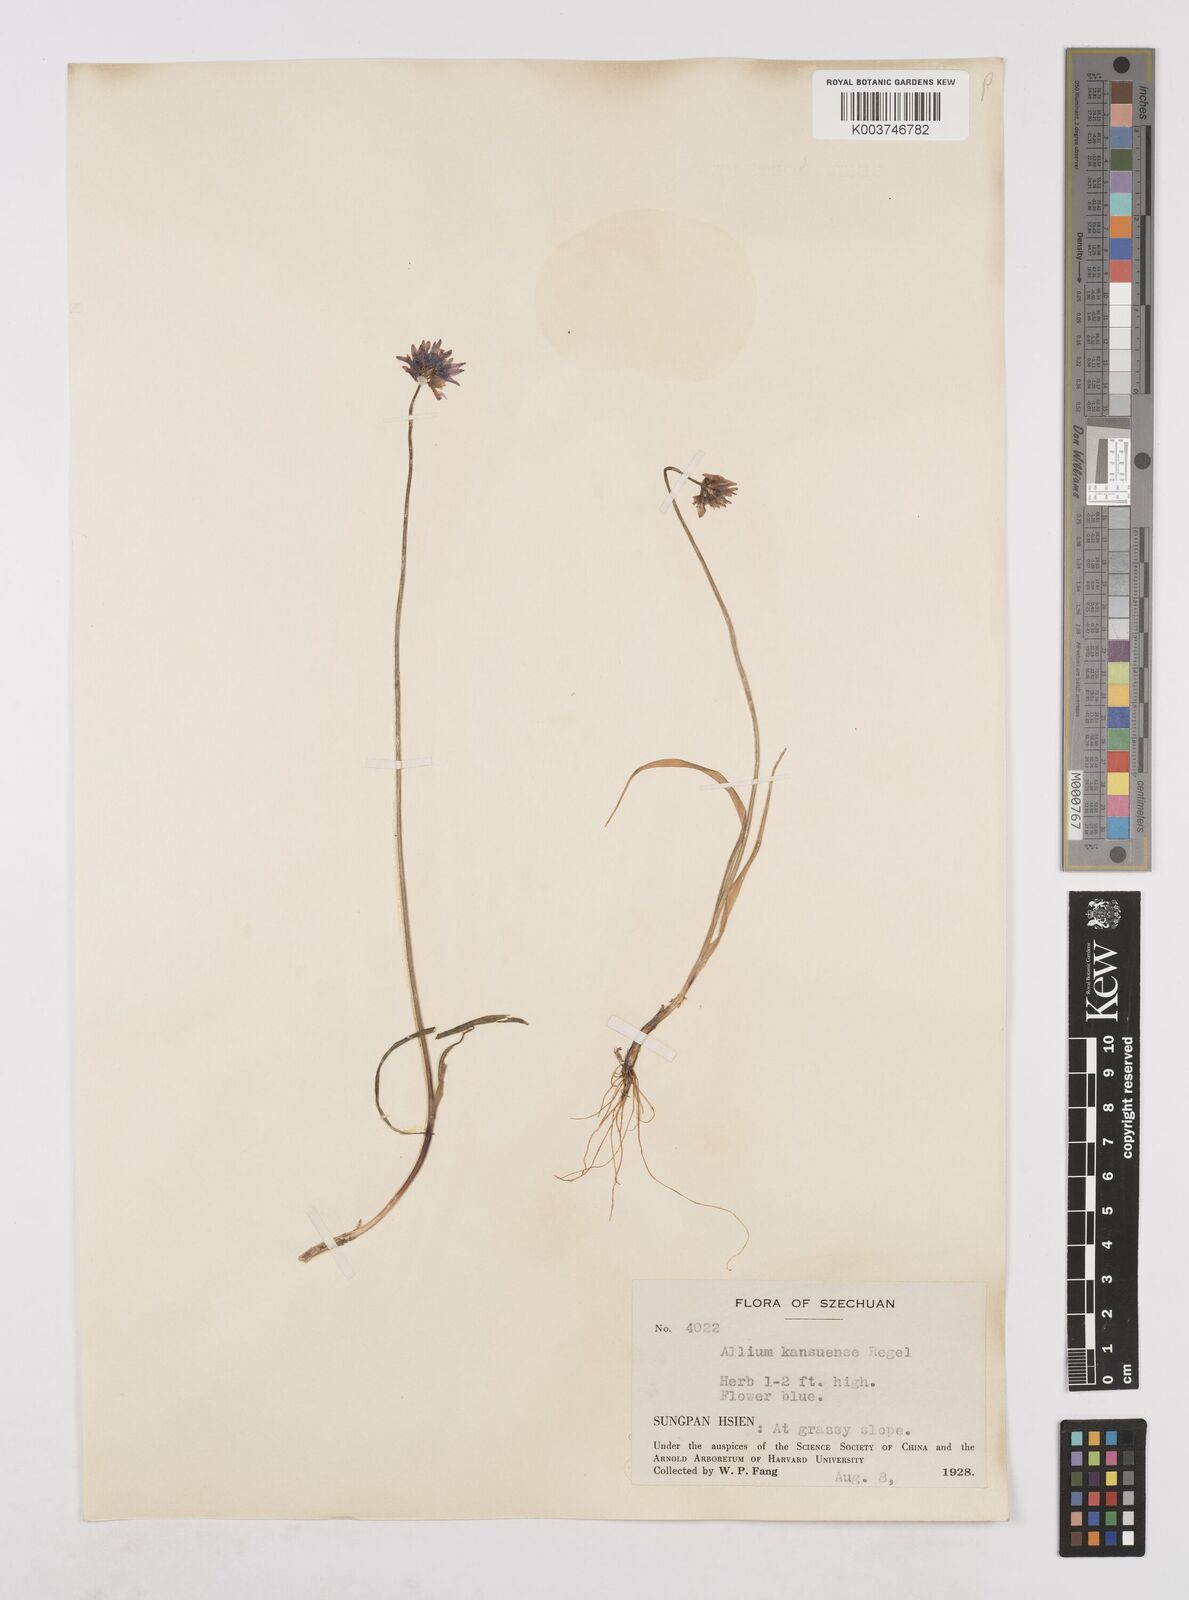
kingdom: Plantae
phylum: Tracheophyta
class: Liliopsida
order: Asparagales
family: Amaryllidaceae
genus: Allium
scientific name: Allium sikkimense
